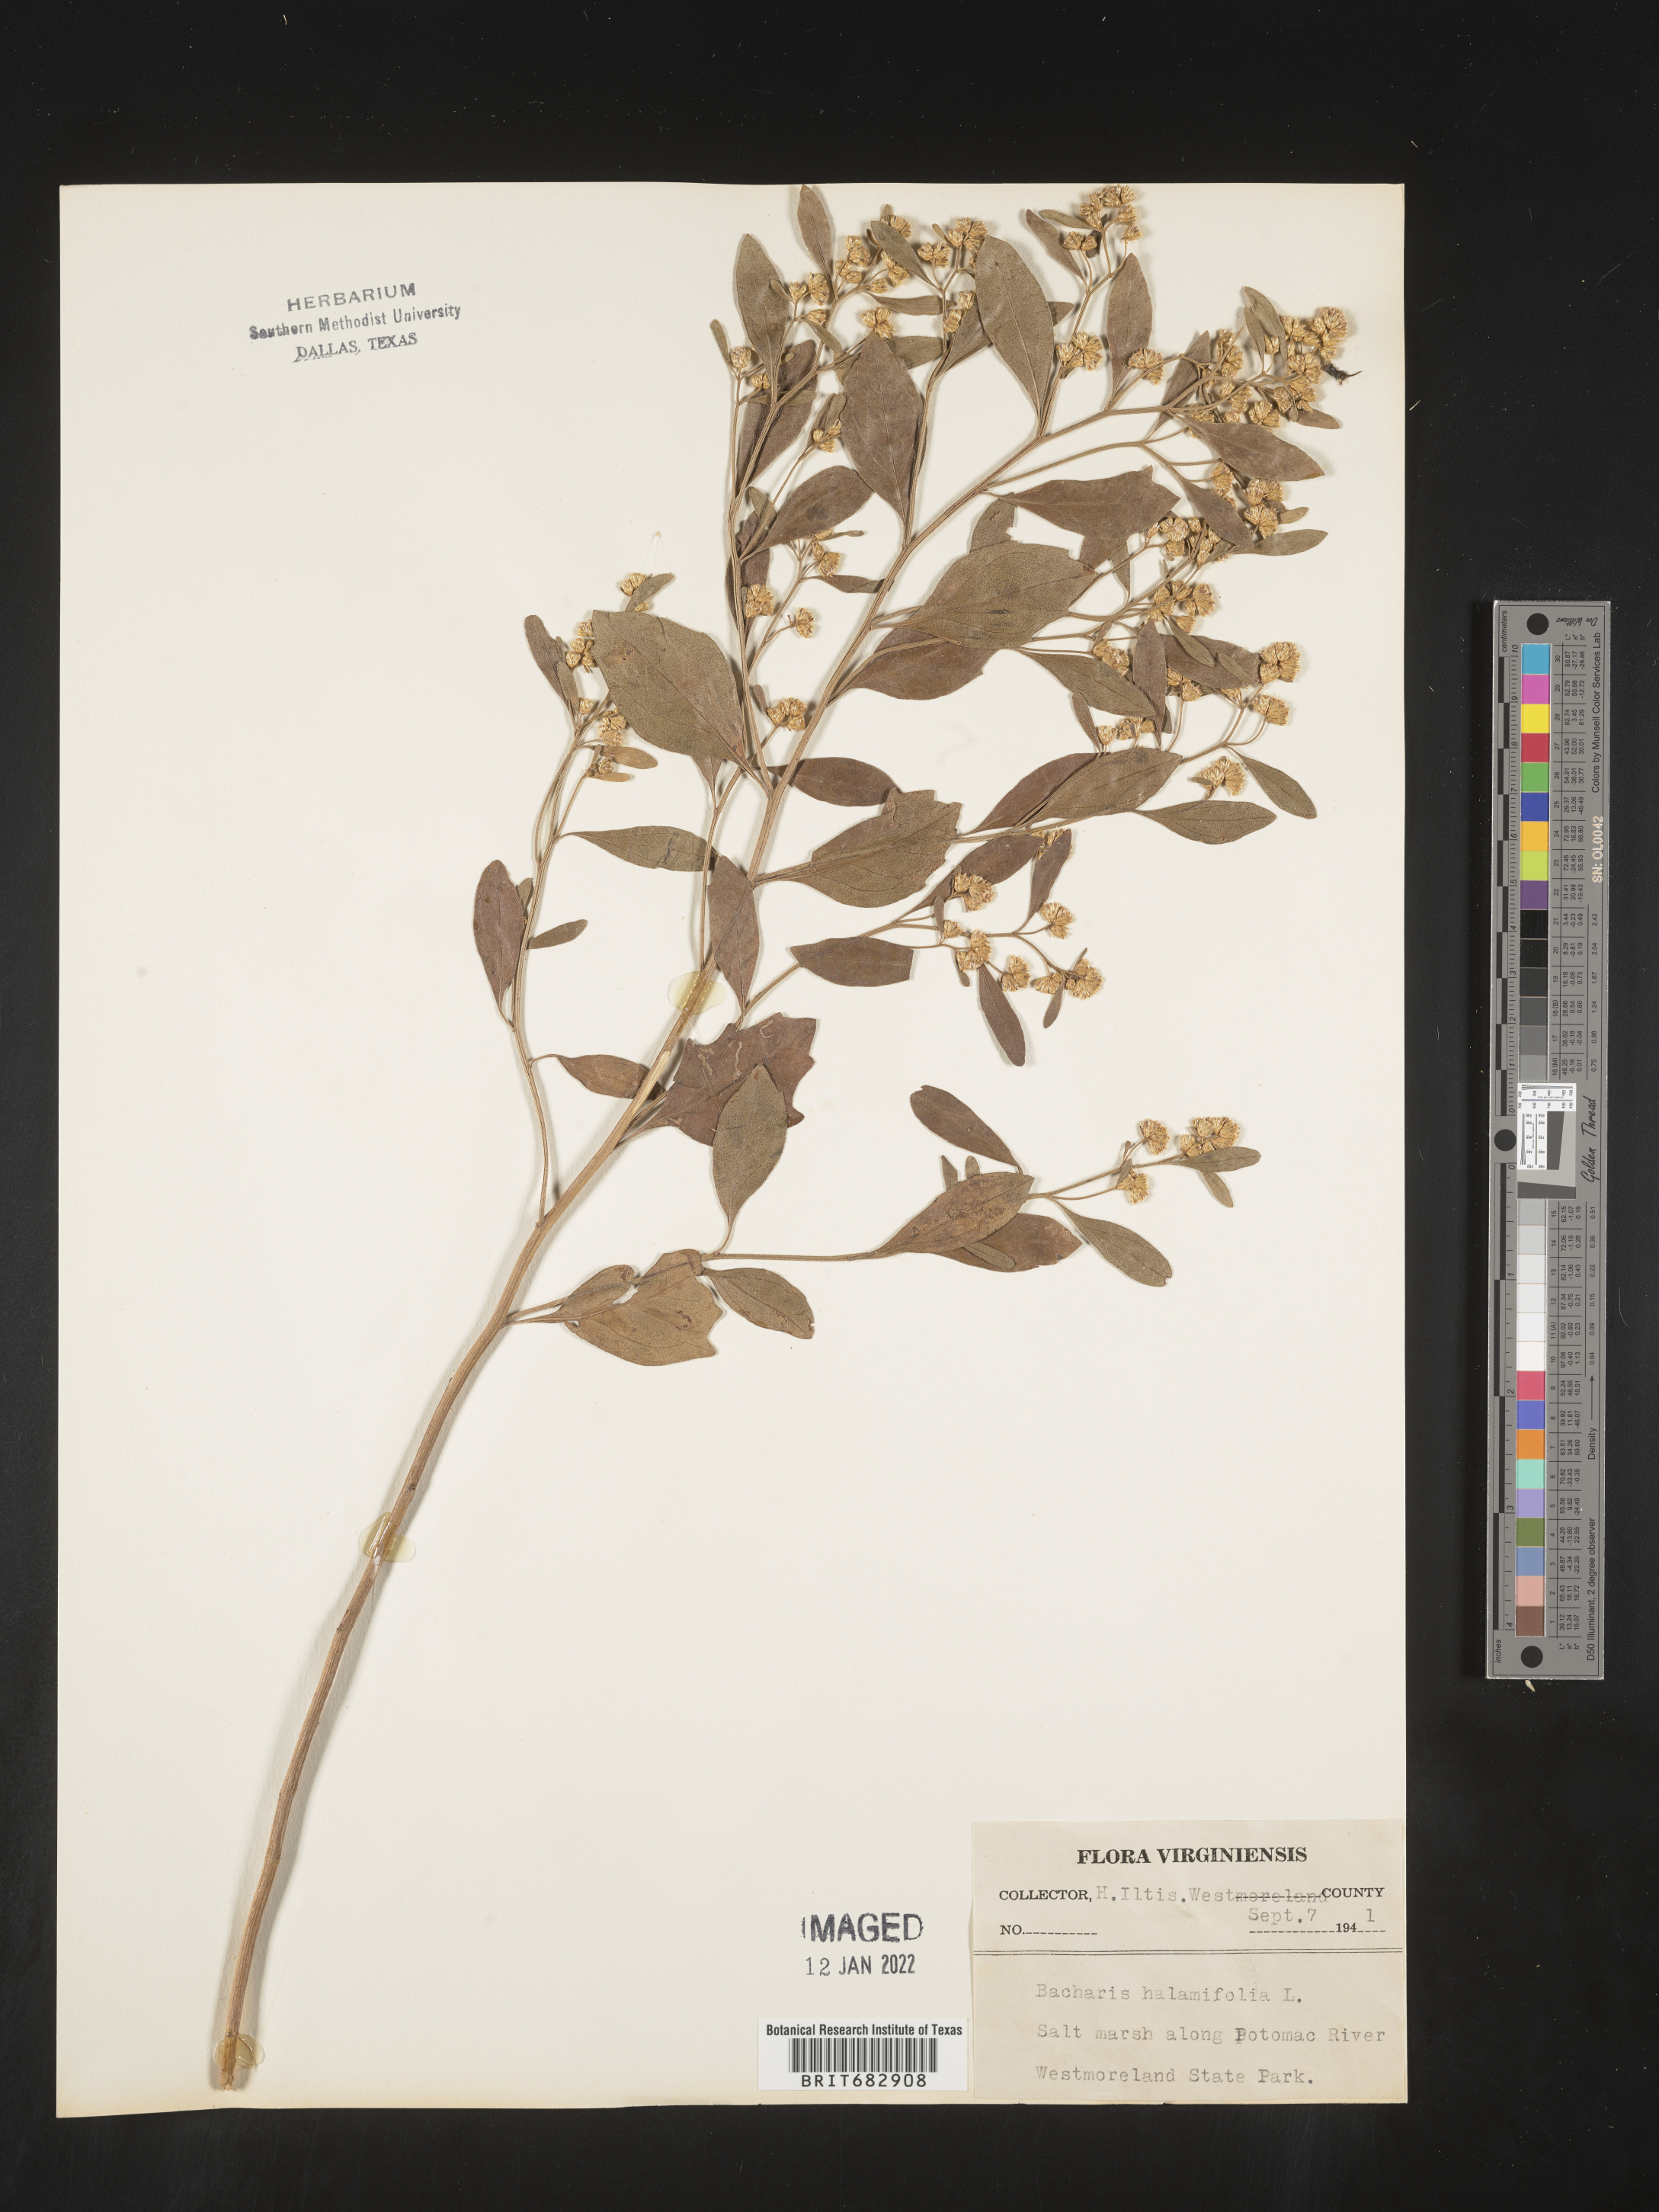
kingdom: Plantae
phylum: Tracheophyta
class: Magnoliopsida
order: Asterales
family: Asteraceae
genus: Nidorella
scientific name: Nidorella ivifolia
